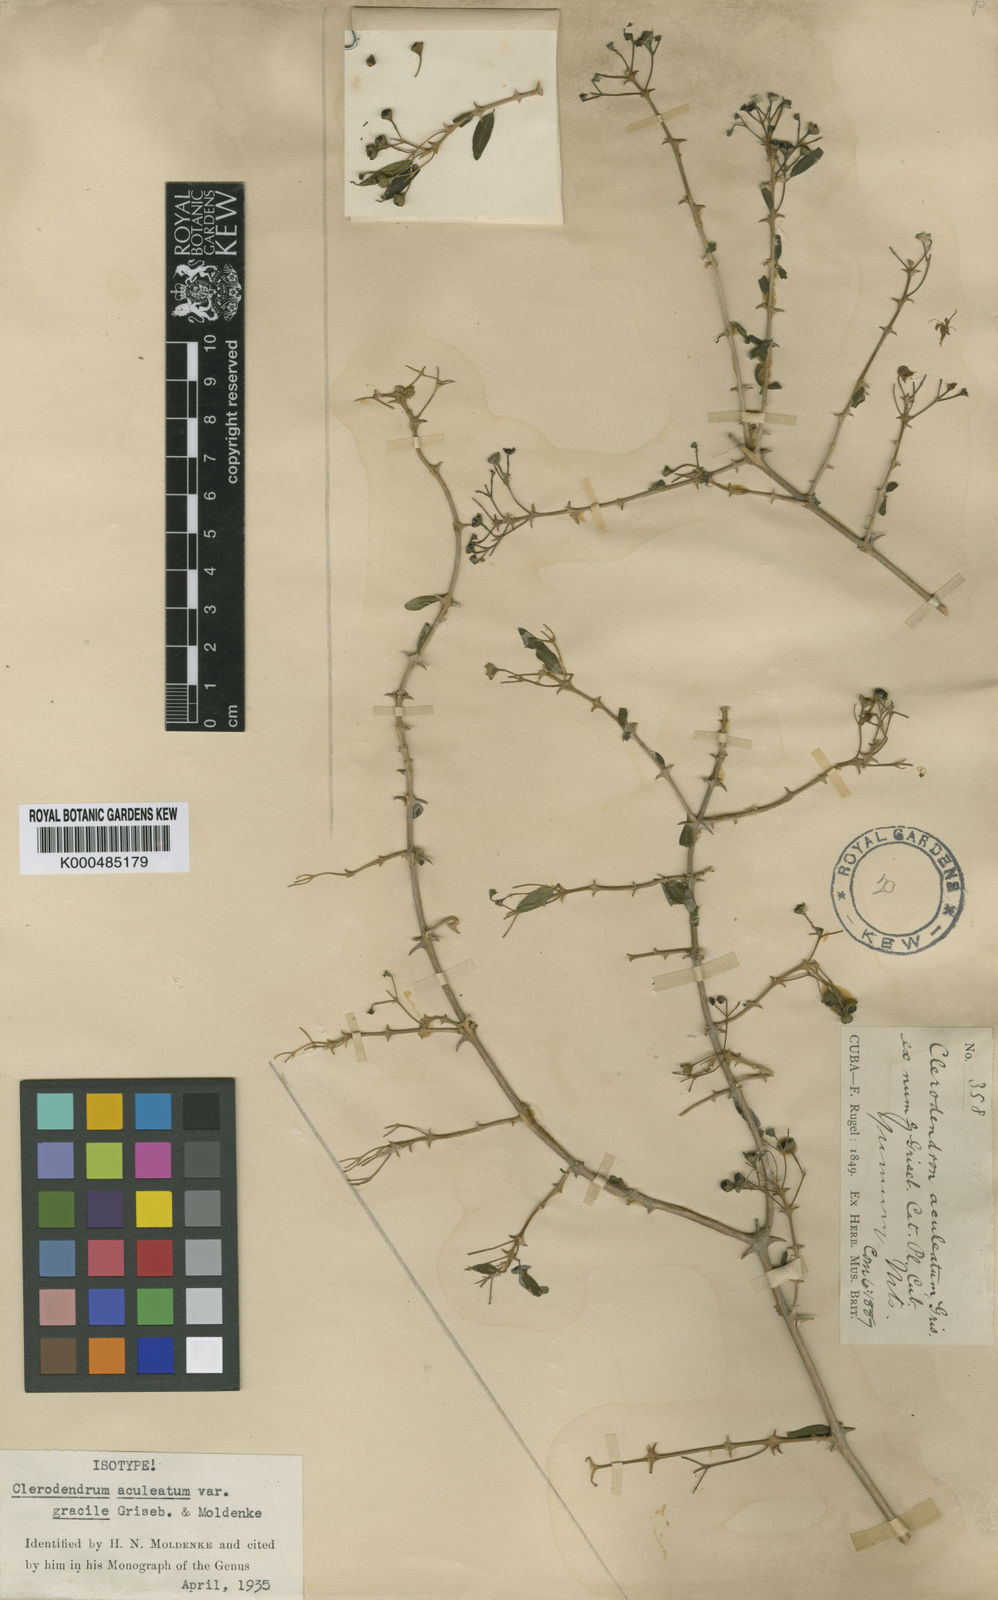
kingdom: Plantae
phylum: Tracheophyta
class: Magnoliopsida
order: Lamiales
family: Lamiaceae
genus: Volkameria
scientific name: Volkameria aculeata
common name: Prickly myrtle
